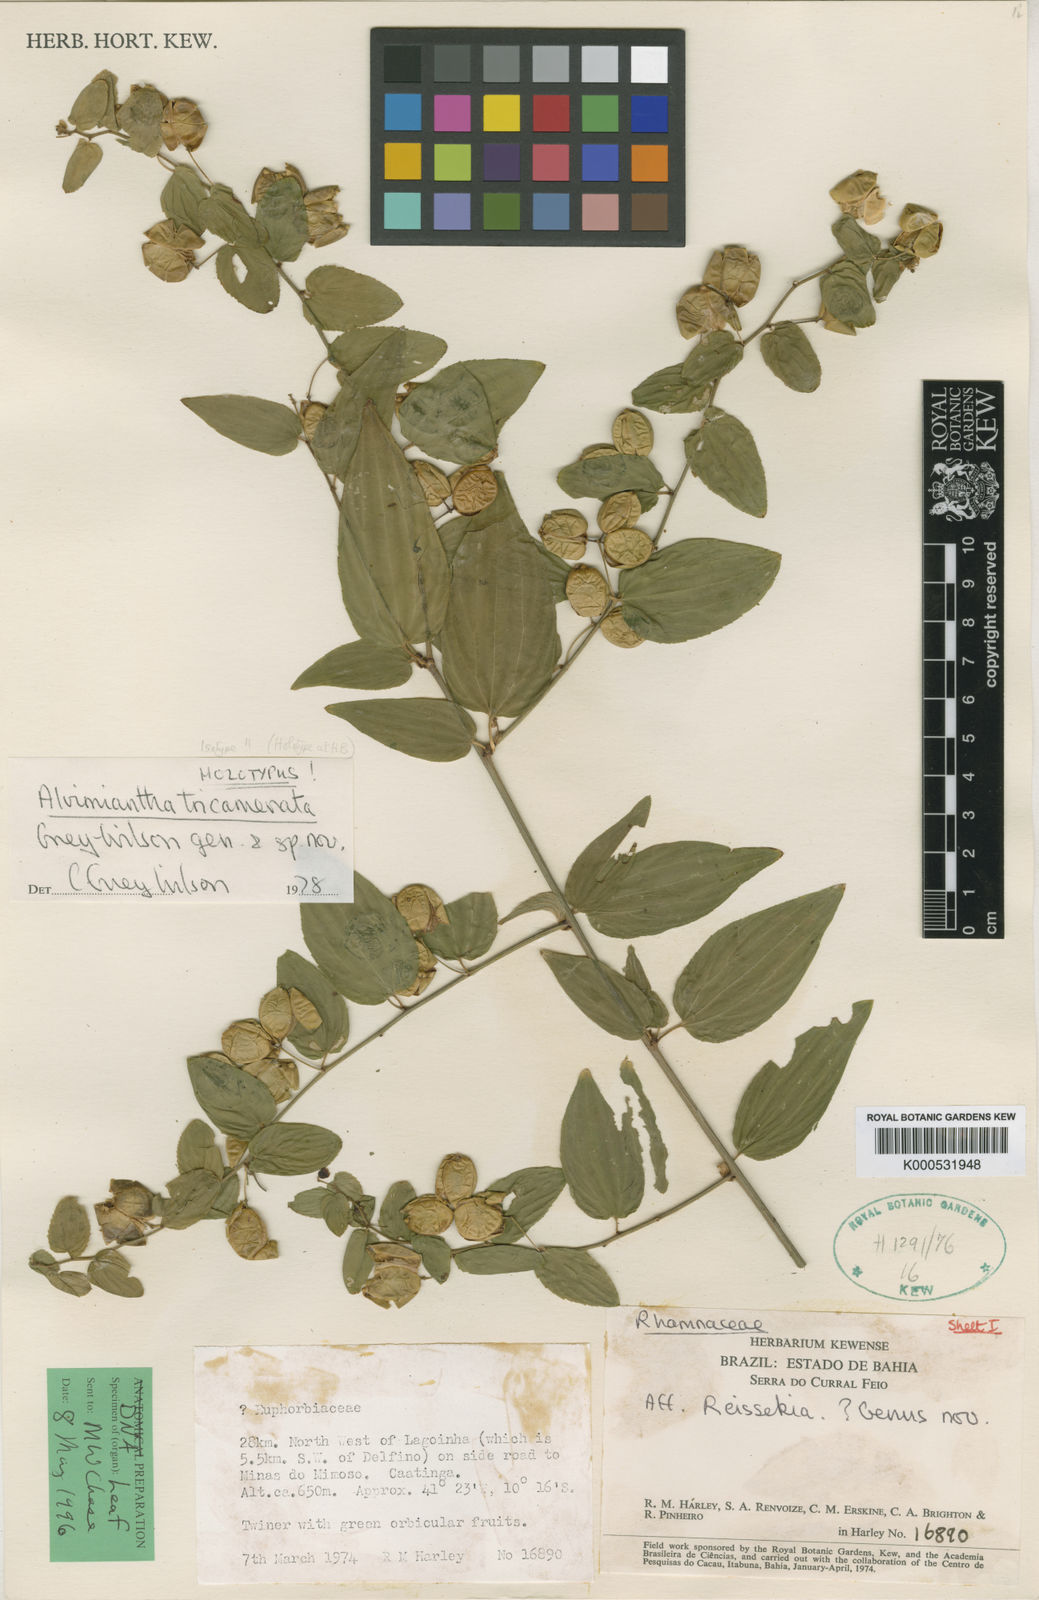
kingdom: Plantae
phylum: Tracheophyta
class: Magnoliopsida
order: Rosales
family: Rhamnaceae
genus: Alvimiantha
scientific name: Alvimiantha tricamerata
